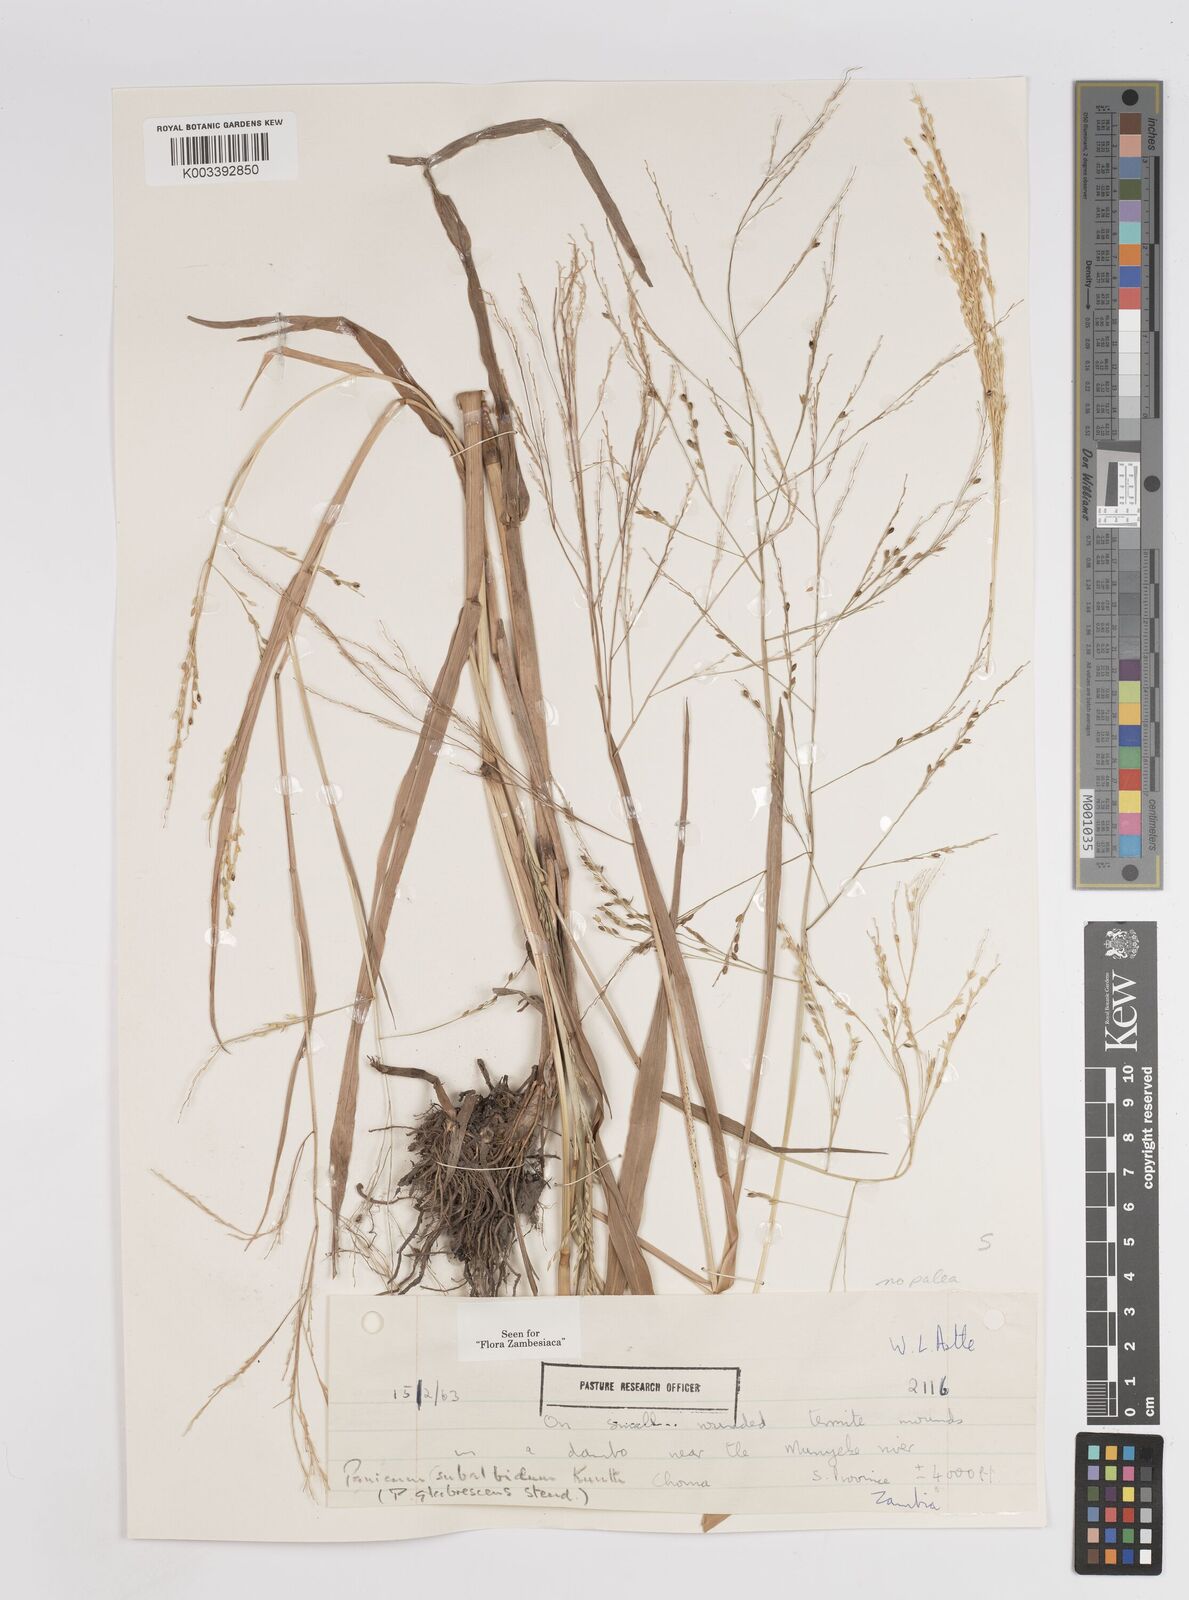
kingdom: Plantae
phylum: Tracheophyta
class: Liliopsida
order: Poales
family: Poaceae
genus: Panicum
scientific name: Panicum subalbidum
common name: Elbow buffalo grass
